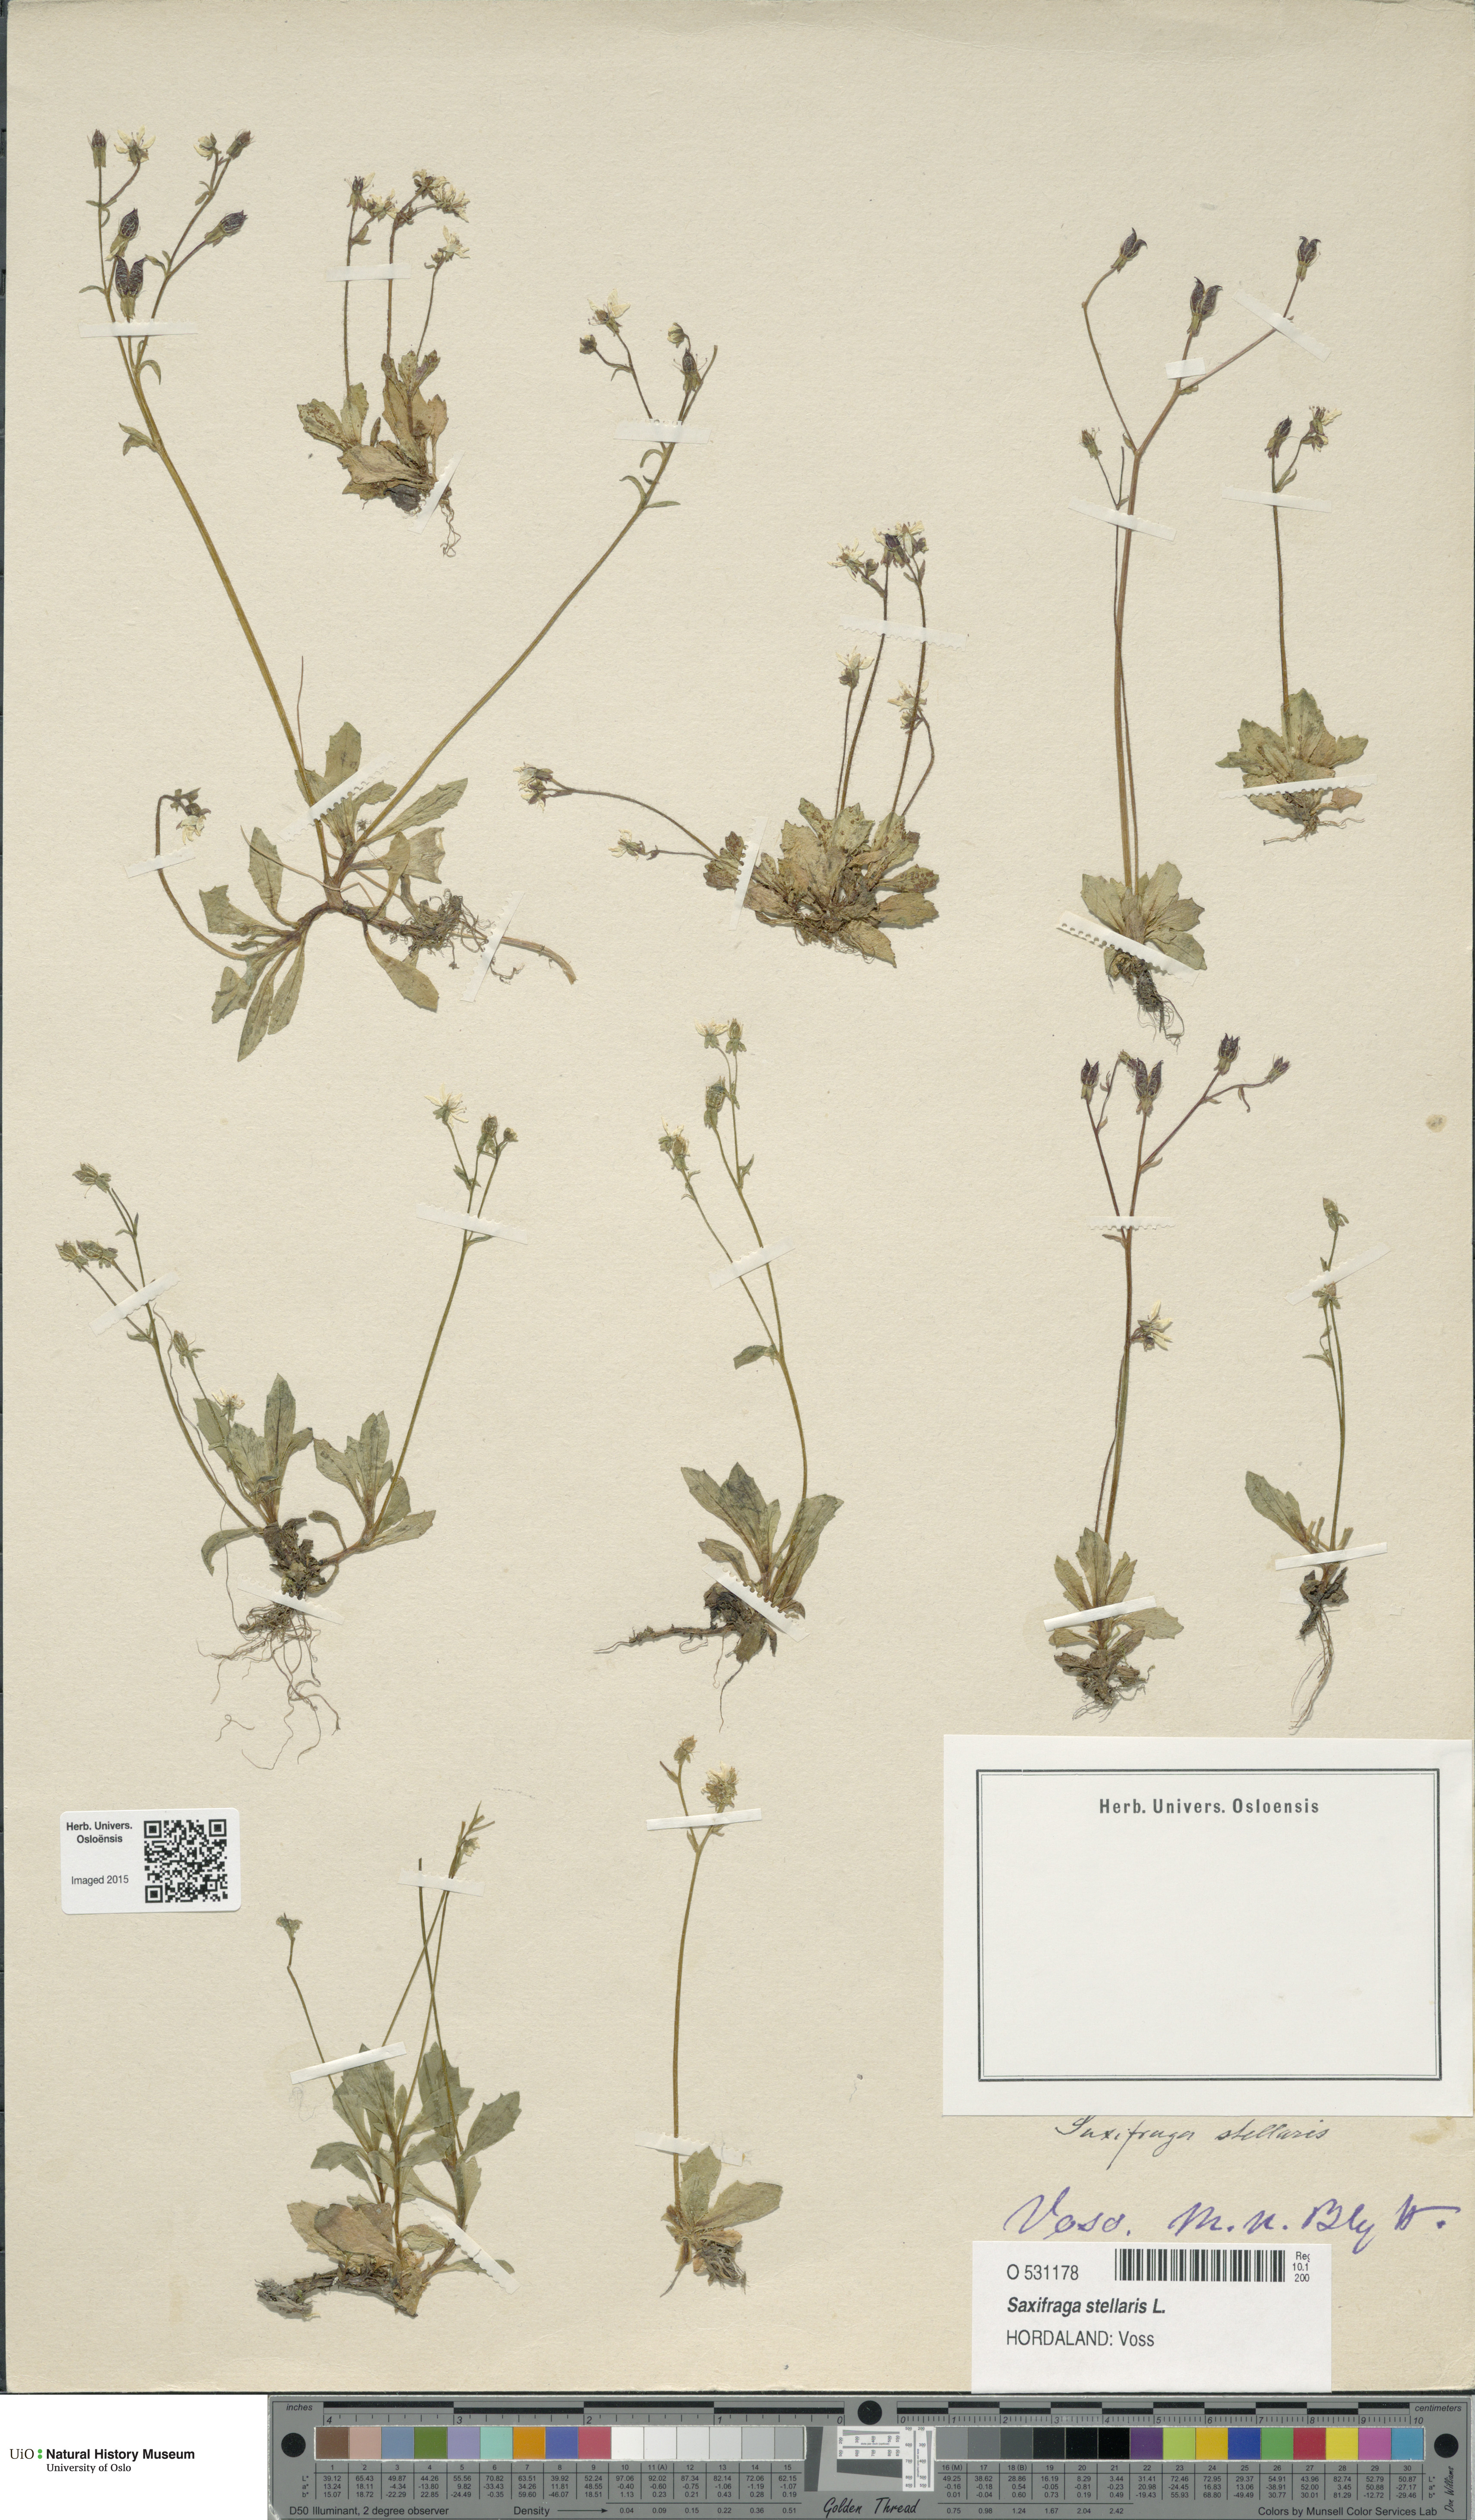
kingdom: Plantae
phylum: Tracheophyta
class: Magnoliopsida
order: Saxifragales
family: Saxifragaceae
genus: Micranthes
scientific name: Micranthes stellaris
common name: Starry saxifrage
